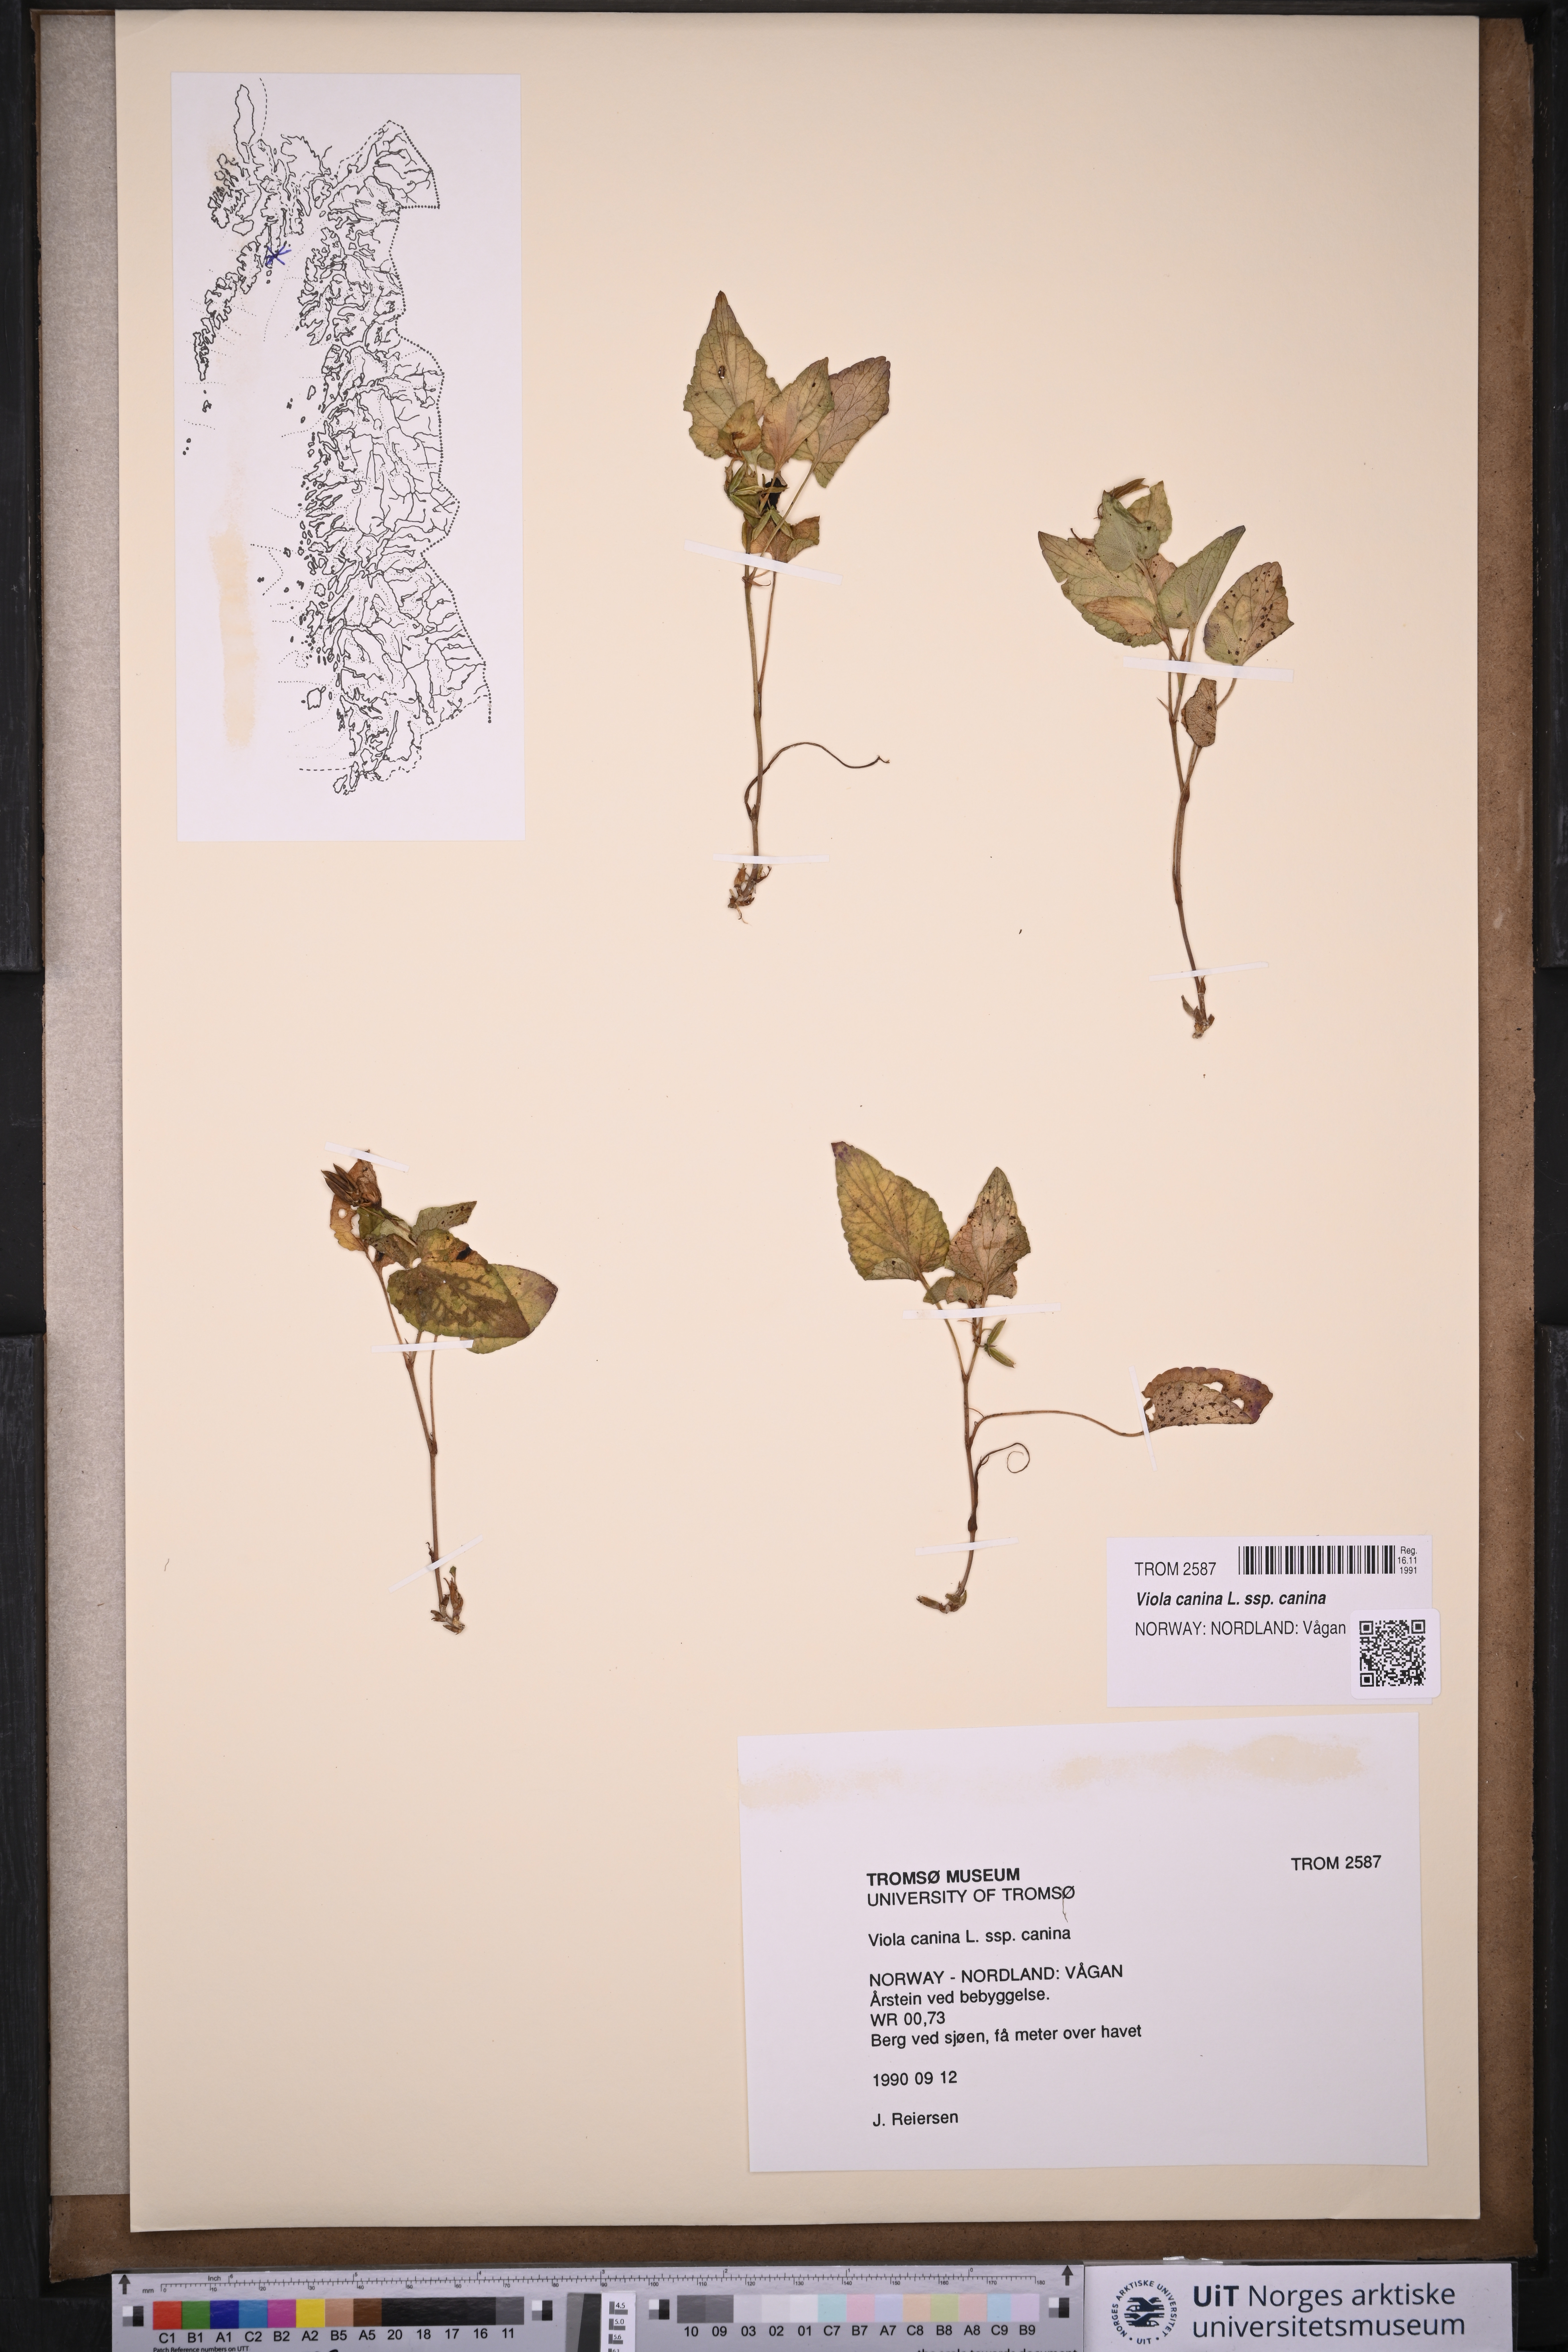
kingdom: Plantae
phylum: Tracheophyta
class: Magnoliopsida
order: Malpighiales
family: Violaceae
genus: Viola
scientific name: Viola canina
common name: Heath dog-violet
